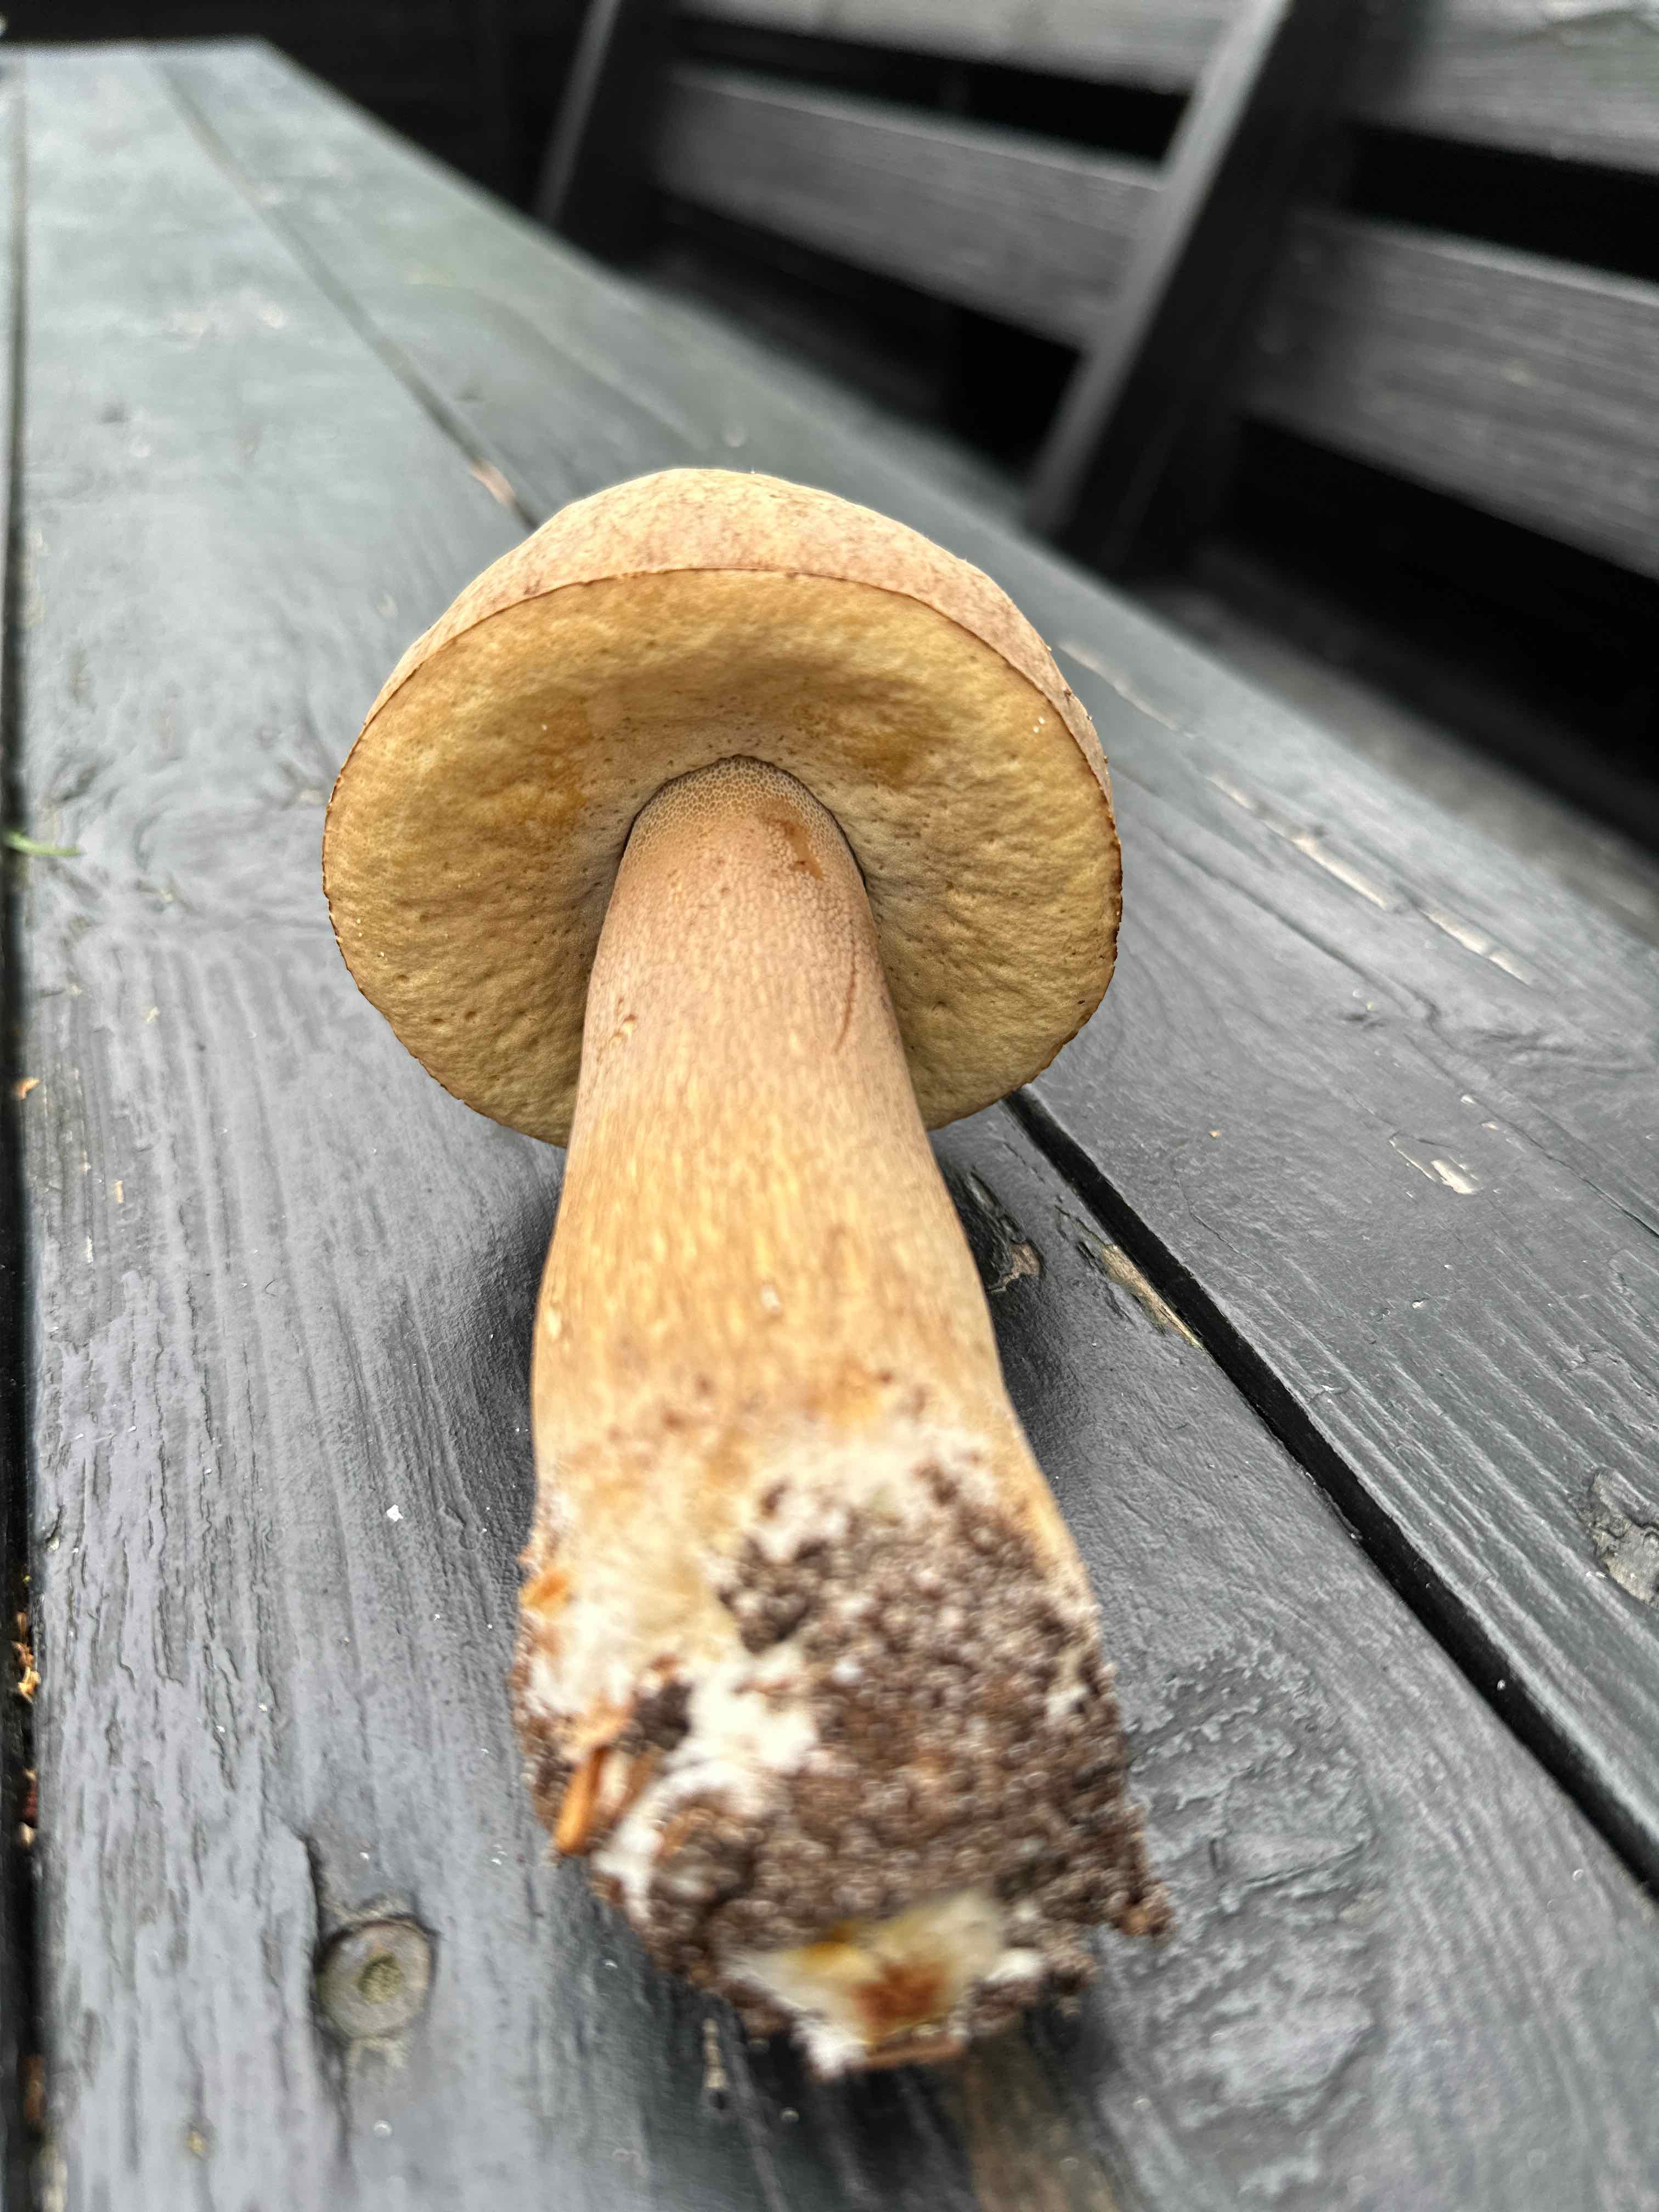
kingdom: Fungi
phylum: Basidiomycota
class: Agaricomycetes
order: Boletales
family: Boletaceae
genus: Boletus
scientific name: Boletus edulis
